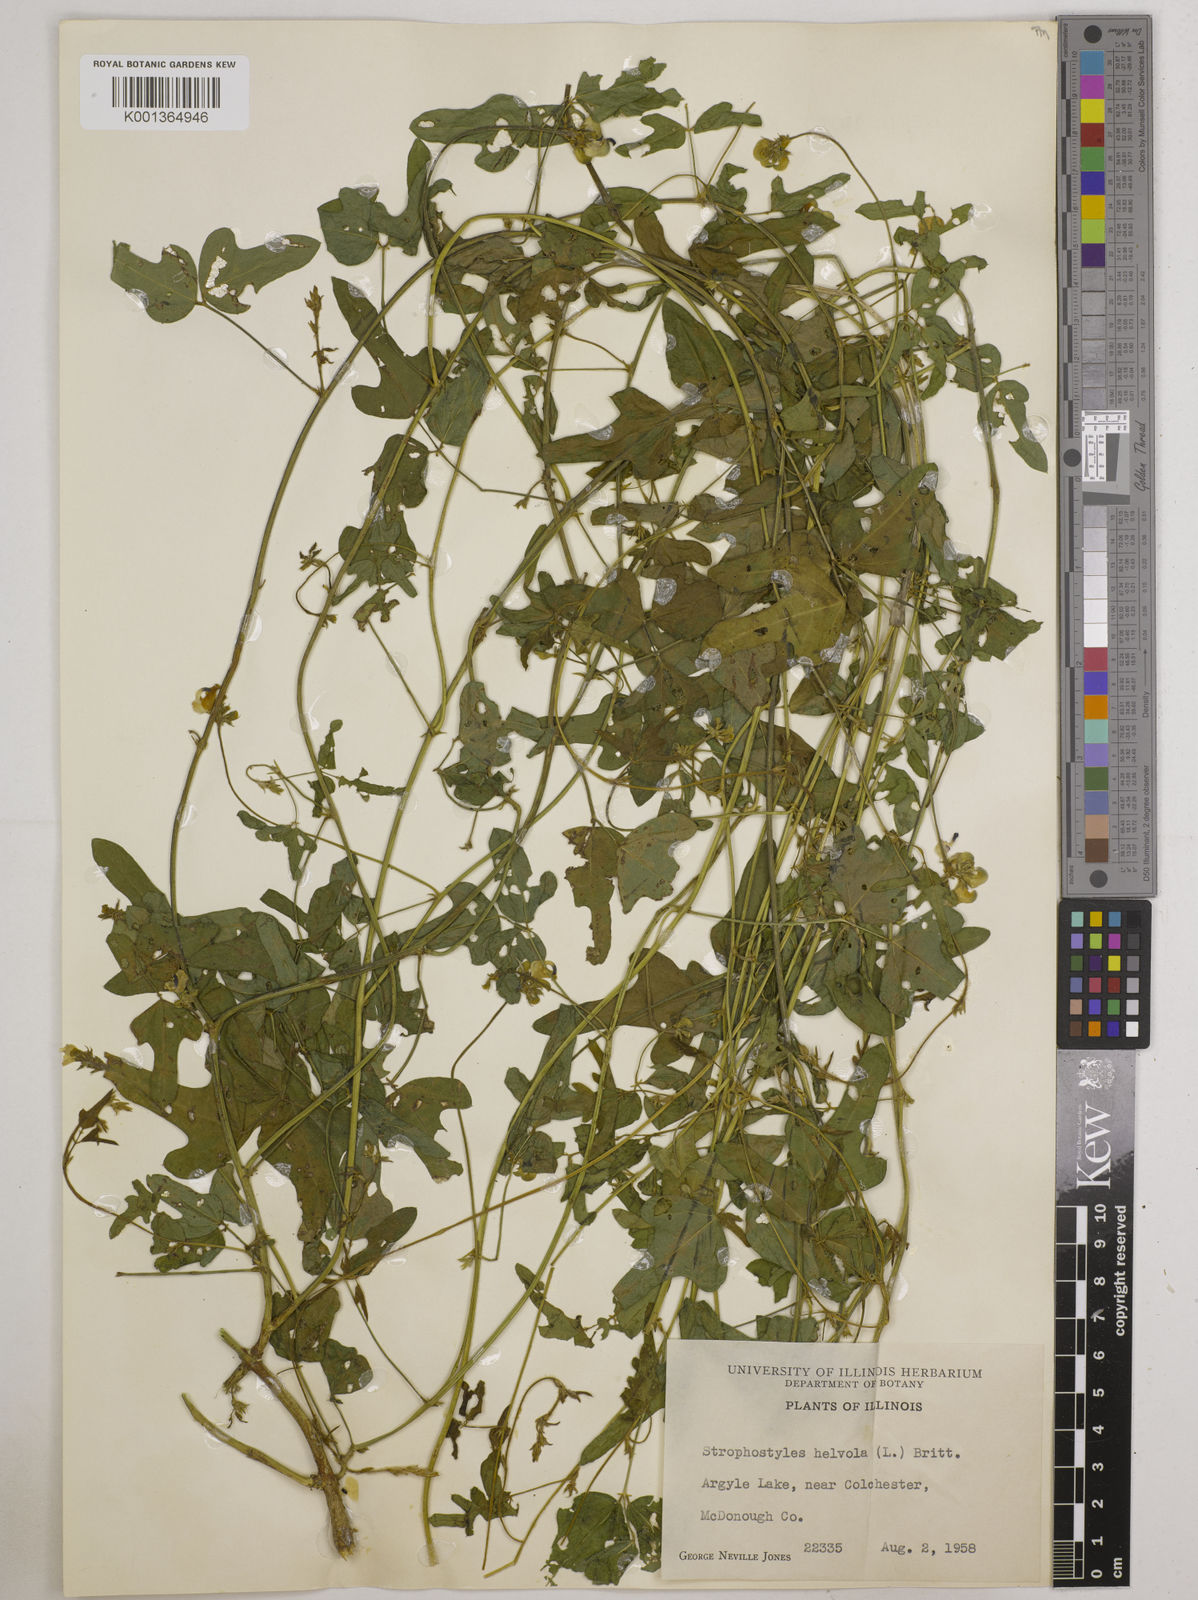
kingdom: Plantae
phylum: Tracheophyta
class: Magnoliopsida
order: Fabales
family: Fabaceae
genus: Strophostyles
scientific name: Strophostyles
